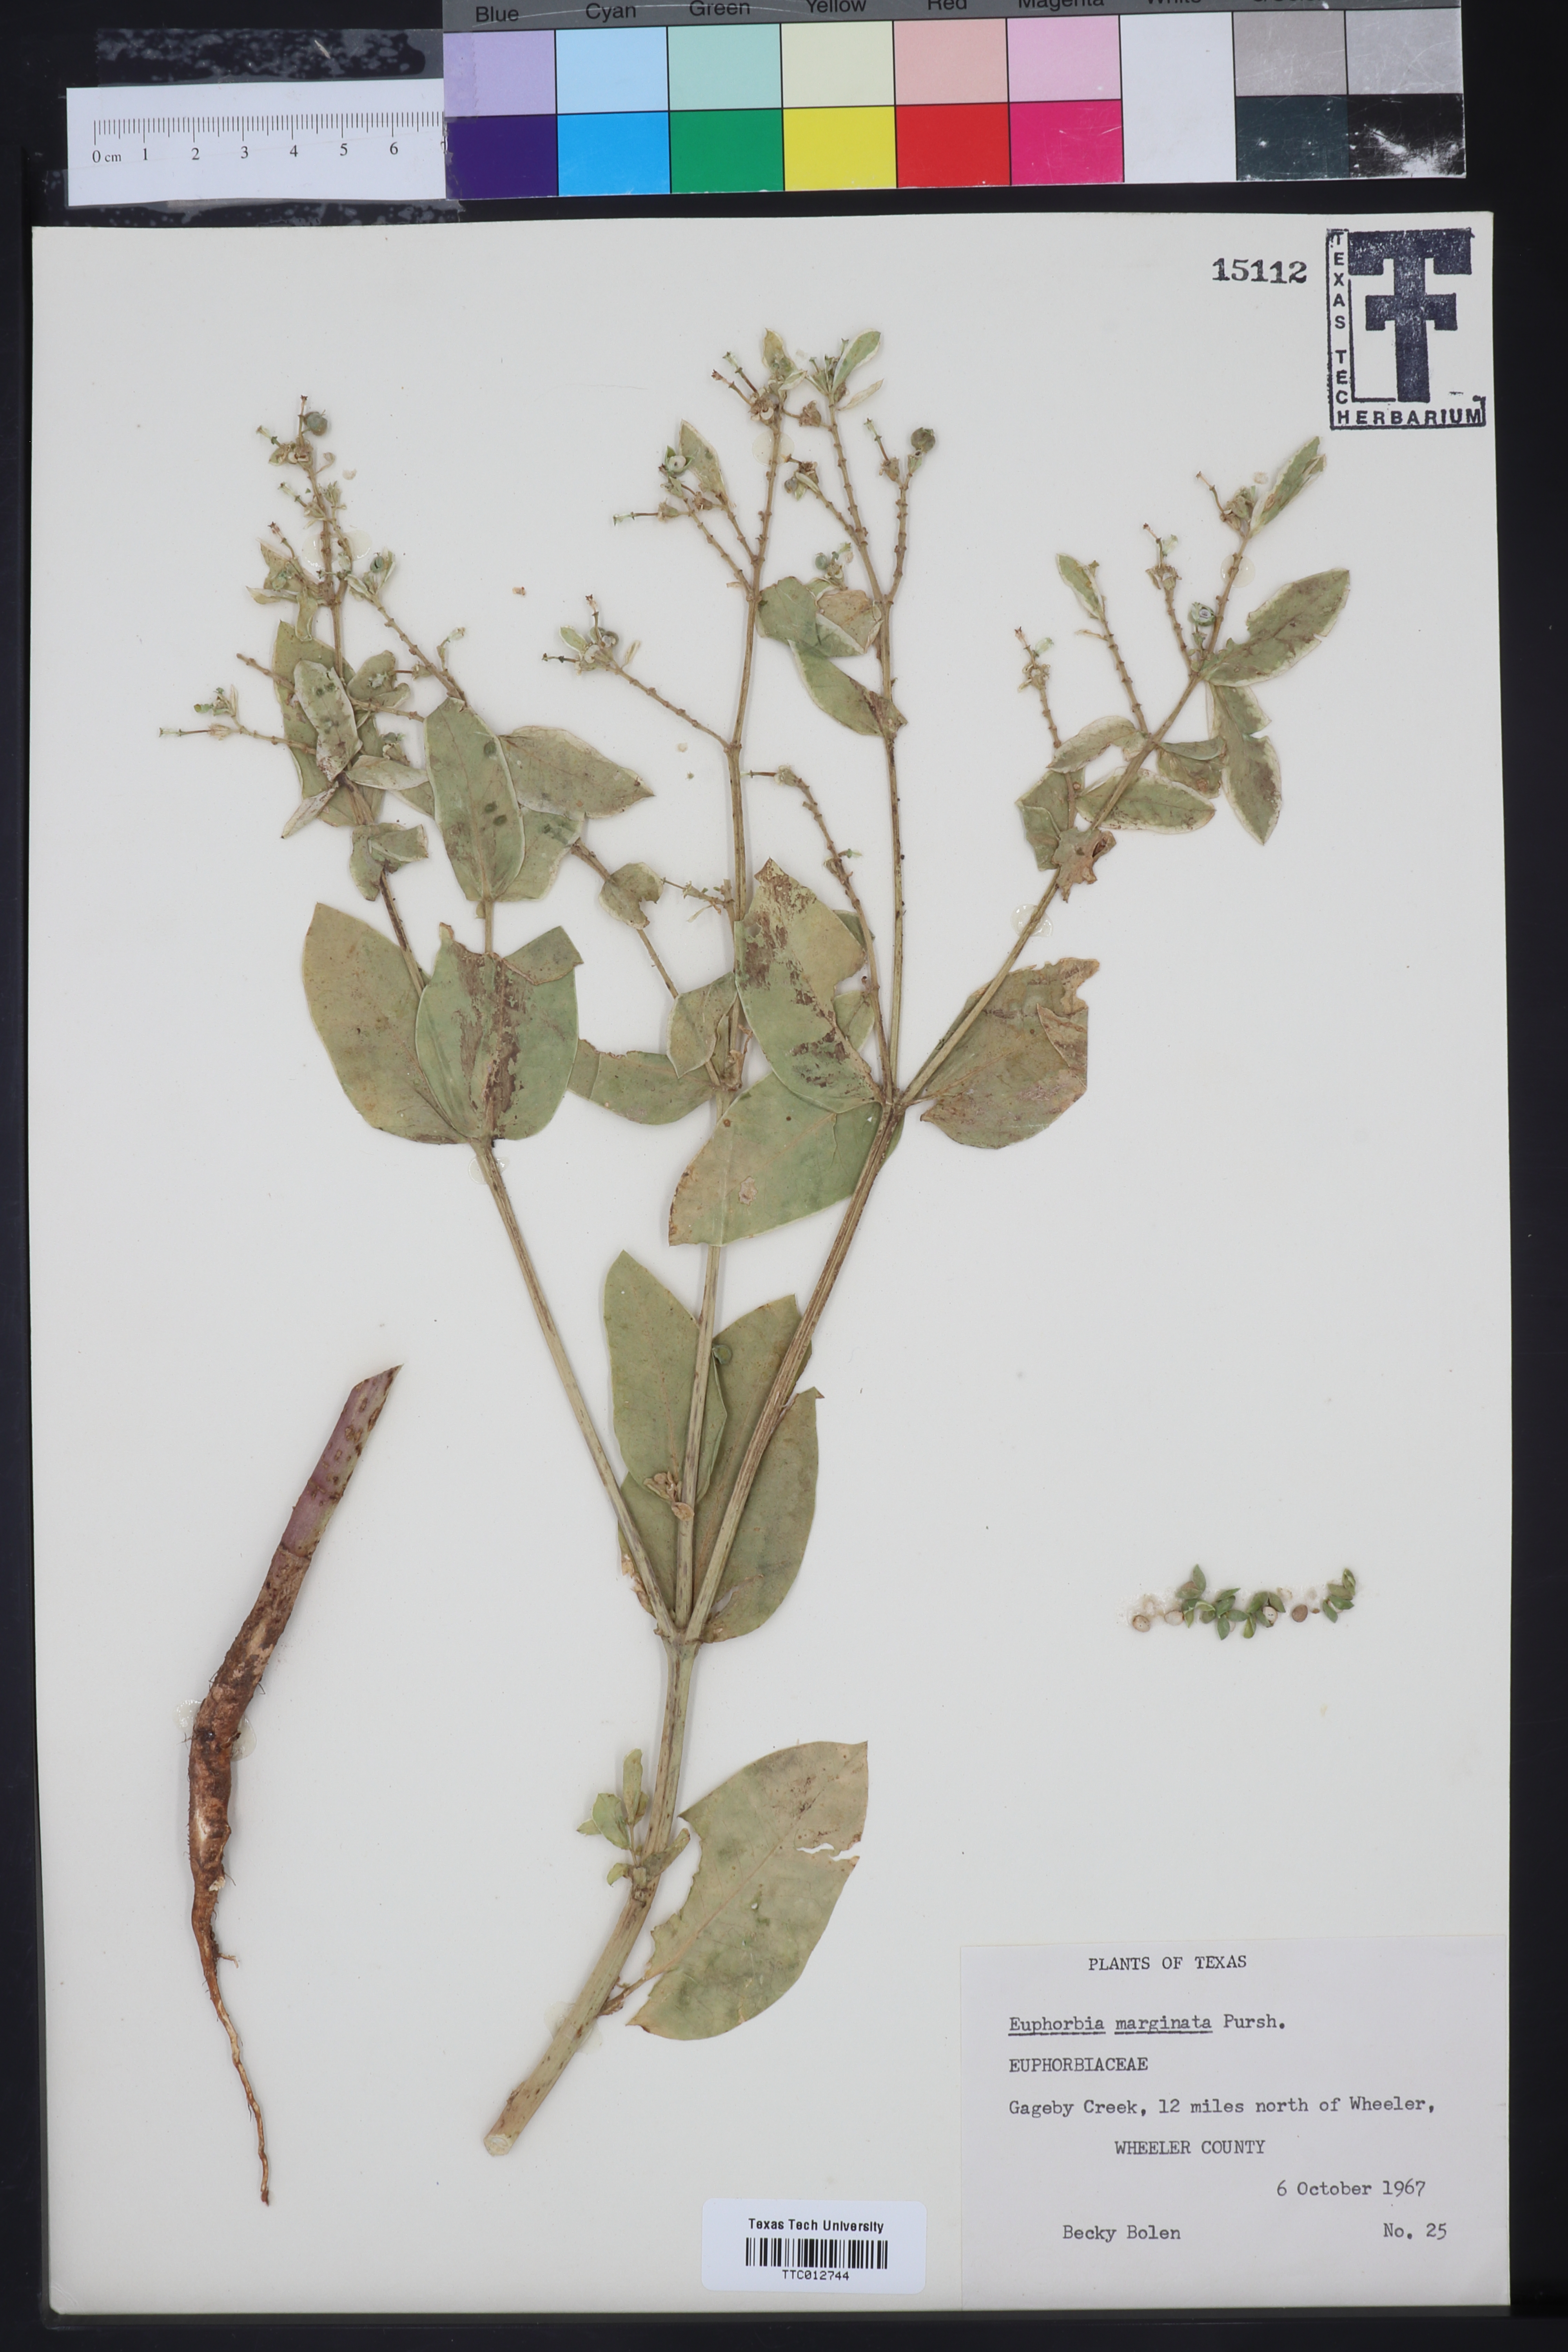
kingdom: Plantae
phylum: Tracheophyta
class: Magnoliopsida
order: Malpighiales
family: Euphorbiaceae
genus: Euphorbia
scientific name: Euphorbia marginata
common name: Ghostweed
